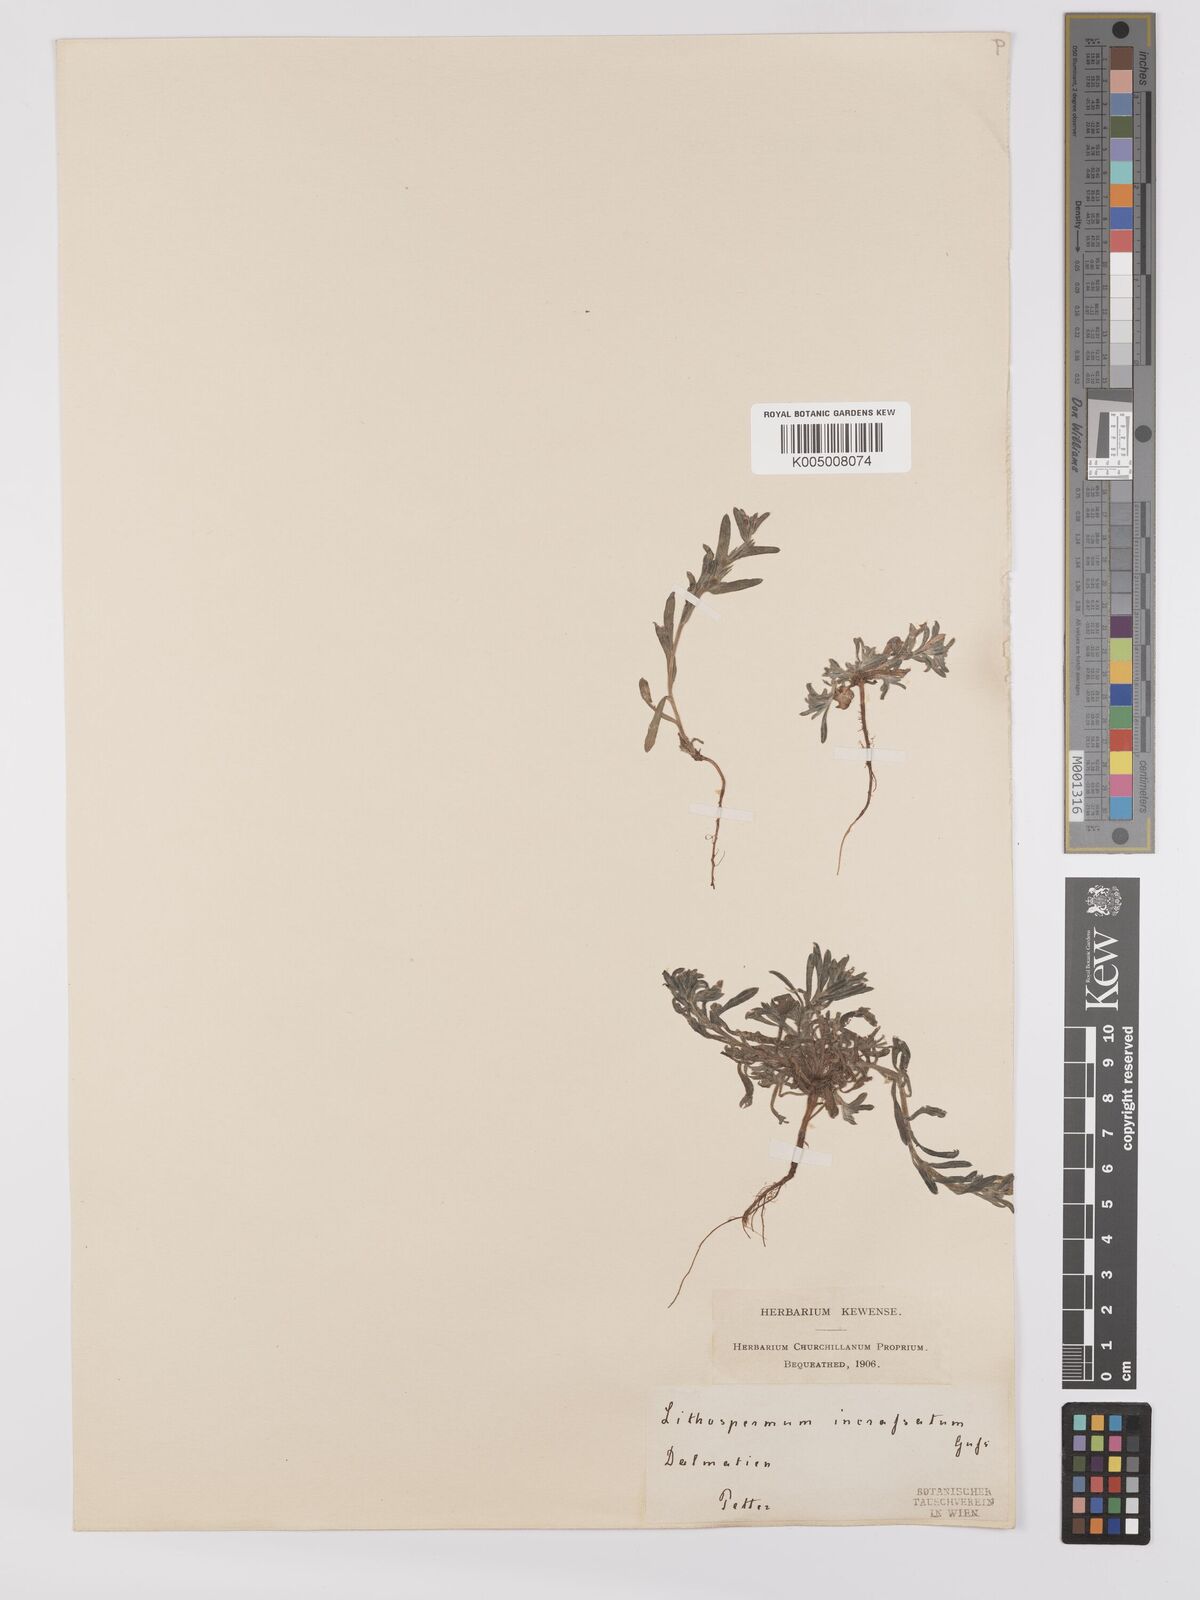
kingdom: Plantae
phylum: Tracheophyta
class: Magnoliopsida
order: Boraginales
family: Boraginaceae
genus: Buglossoides
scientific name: Buglossoides incrassata
